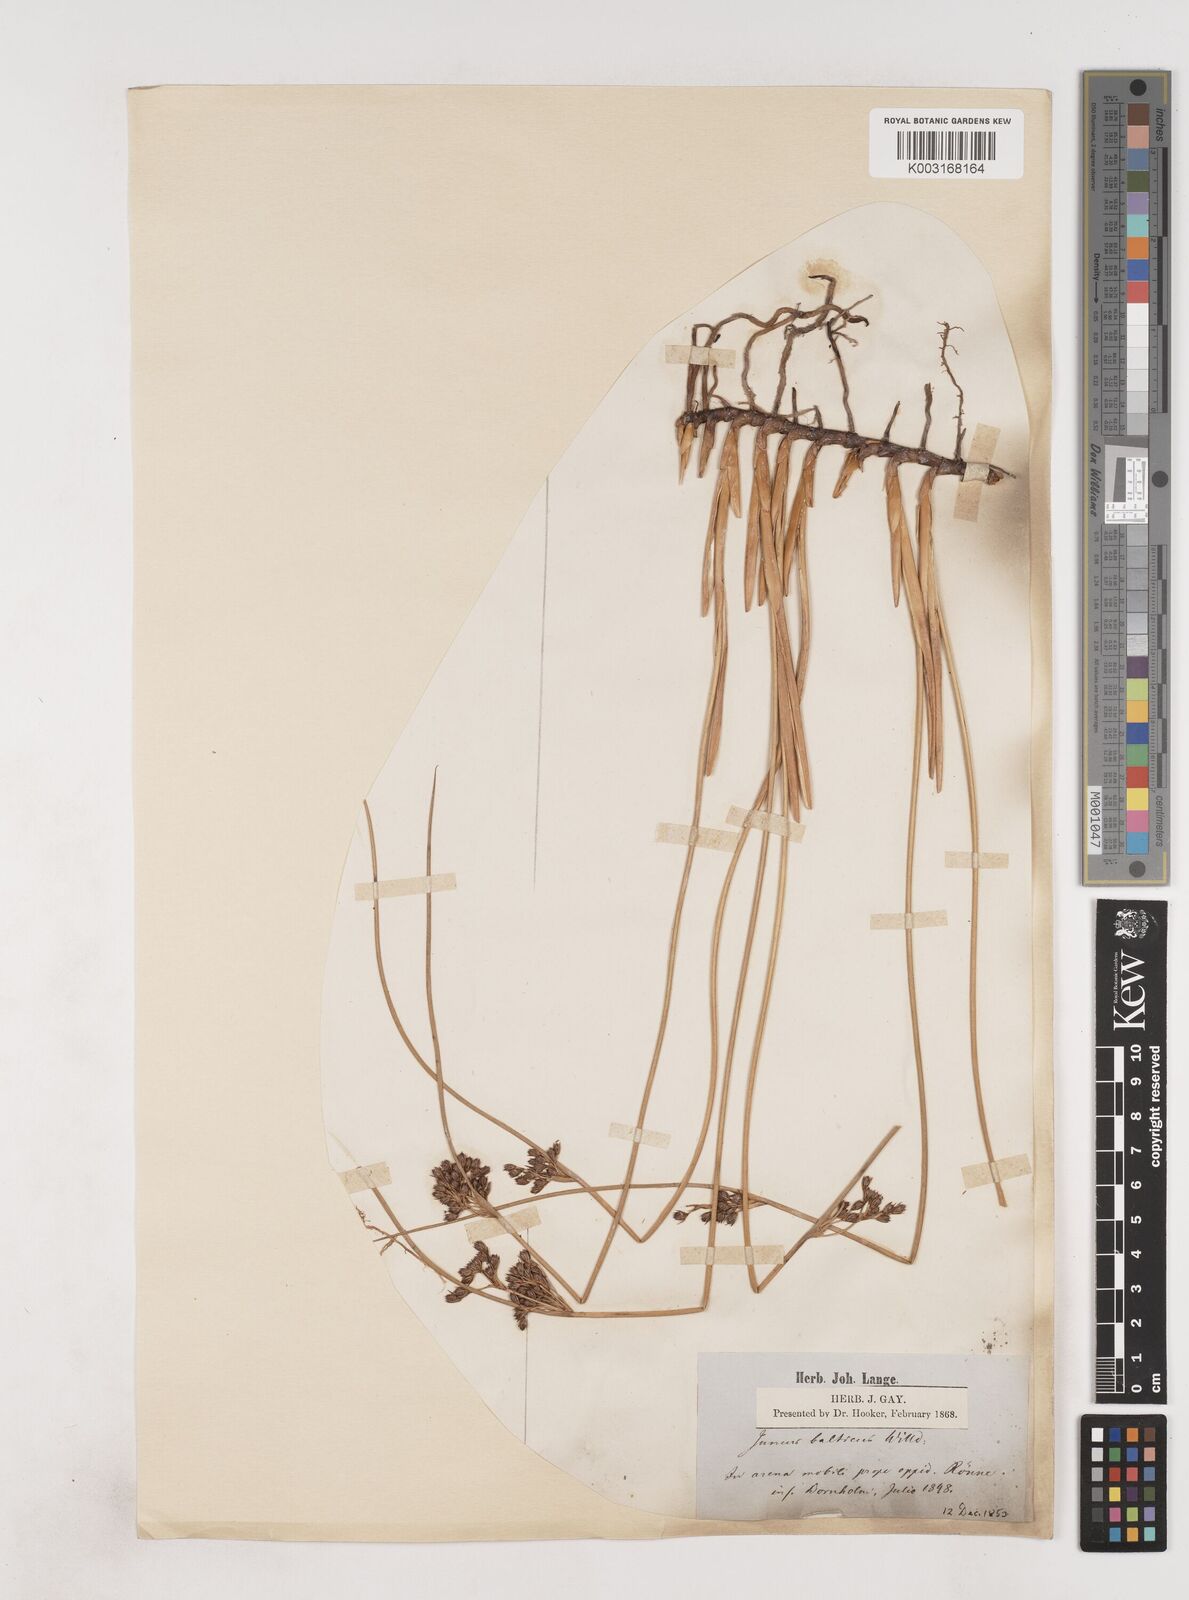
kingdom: Plantae
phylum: Tracheophyta
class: Liliopsida
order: Poales
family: Juncaceae
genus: Juncus
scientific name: Juncus balticus
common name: Baltic rush
